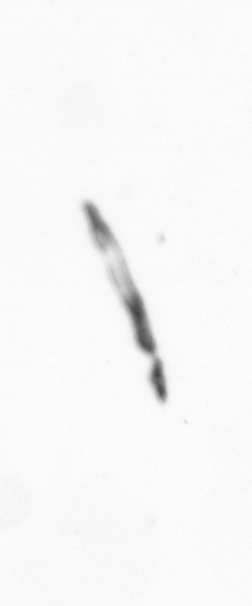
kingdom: Chromista
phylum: Ochrophyta
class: Bacillariophyceae
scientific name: Bacillariophyceae
